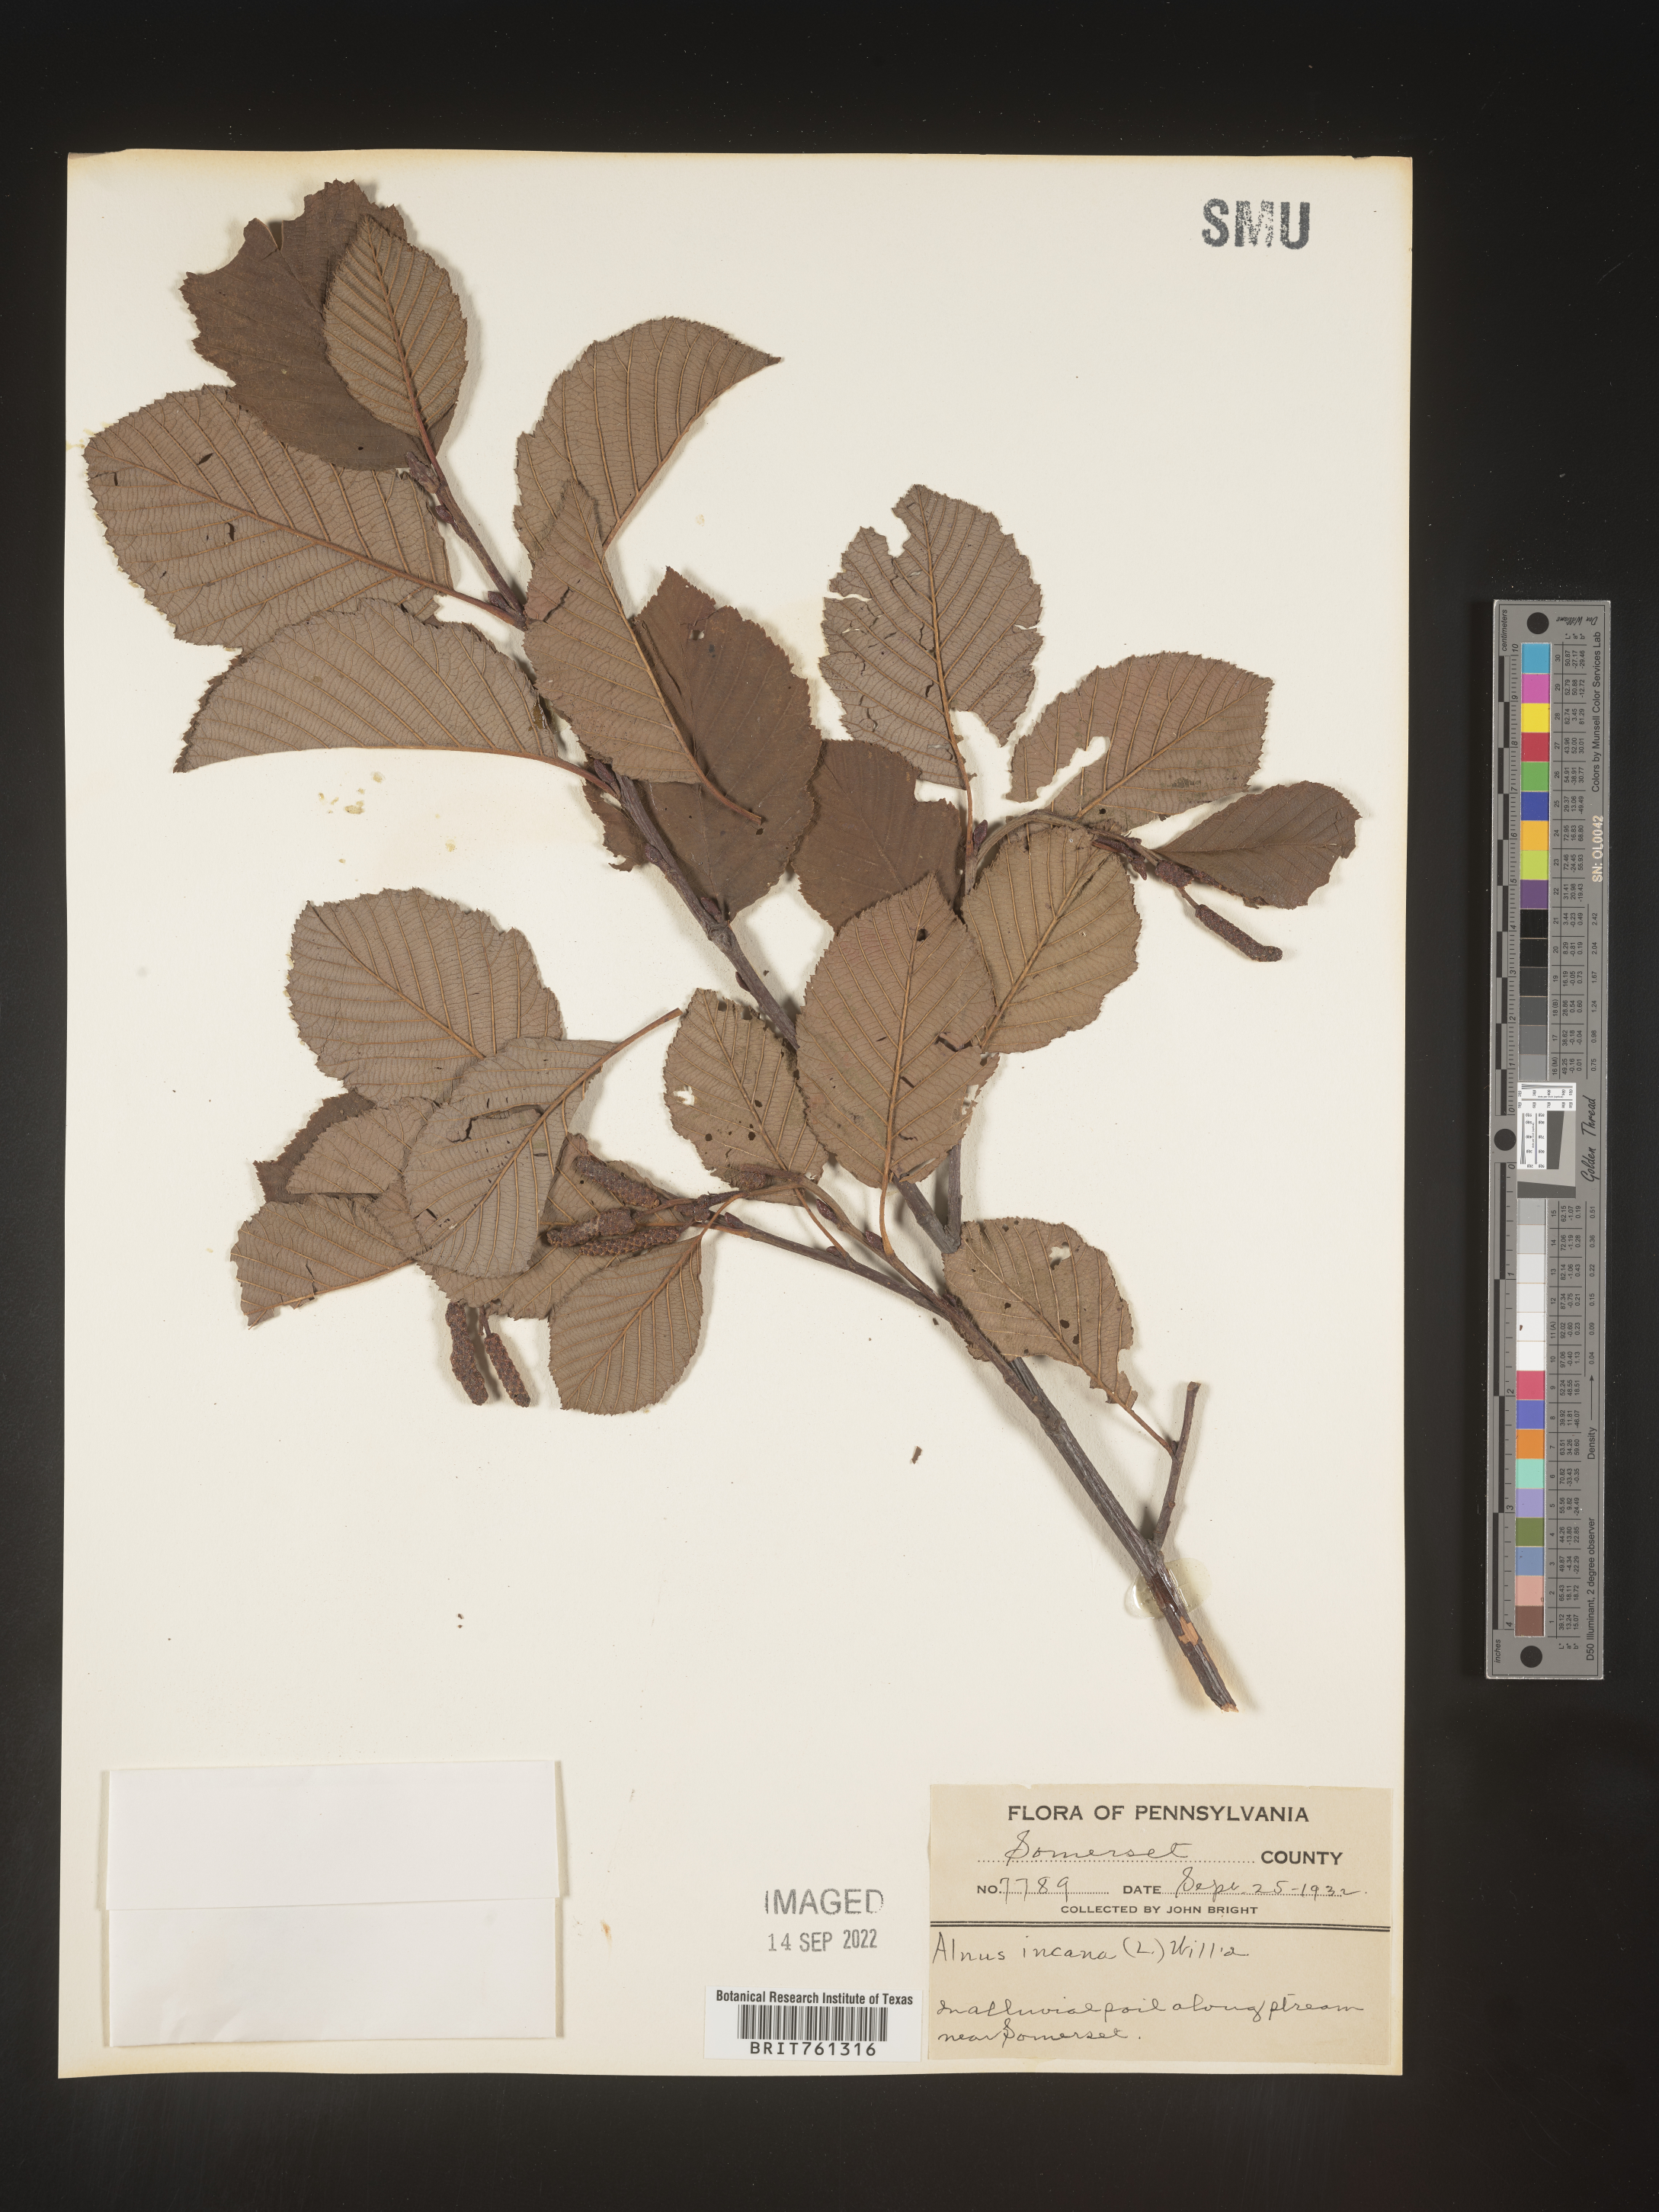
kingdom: Plantae
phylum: Tracheophyta
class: Magnoliopsida
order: Fagales
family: Betulaceae
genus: Alnus
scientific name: Alnus incana
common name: Grey alder
